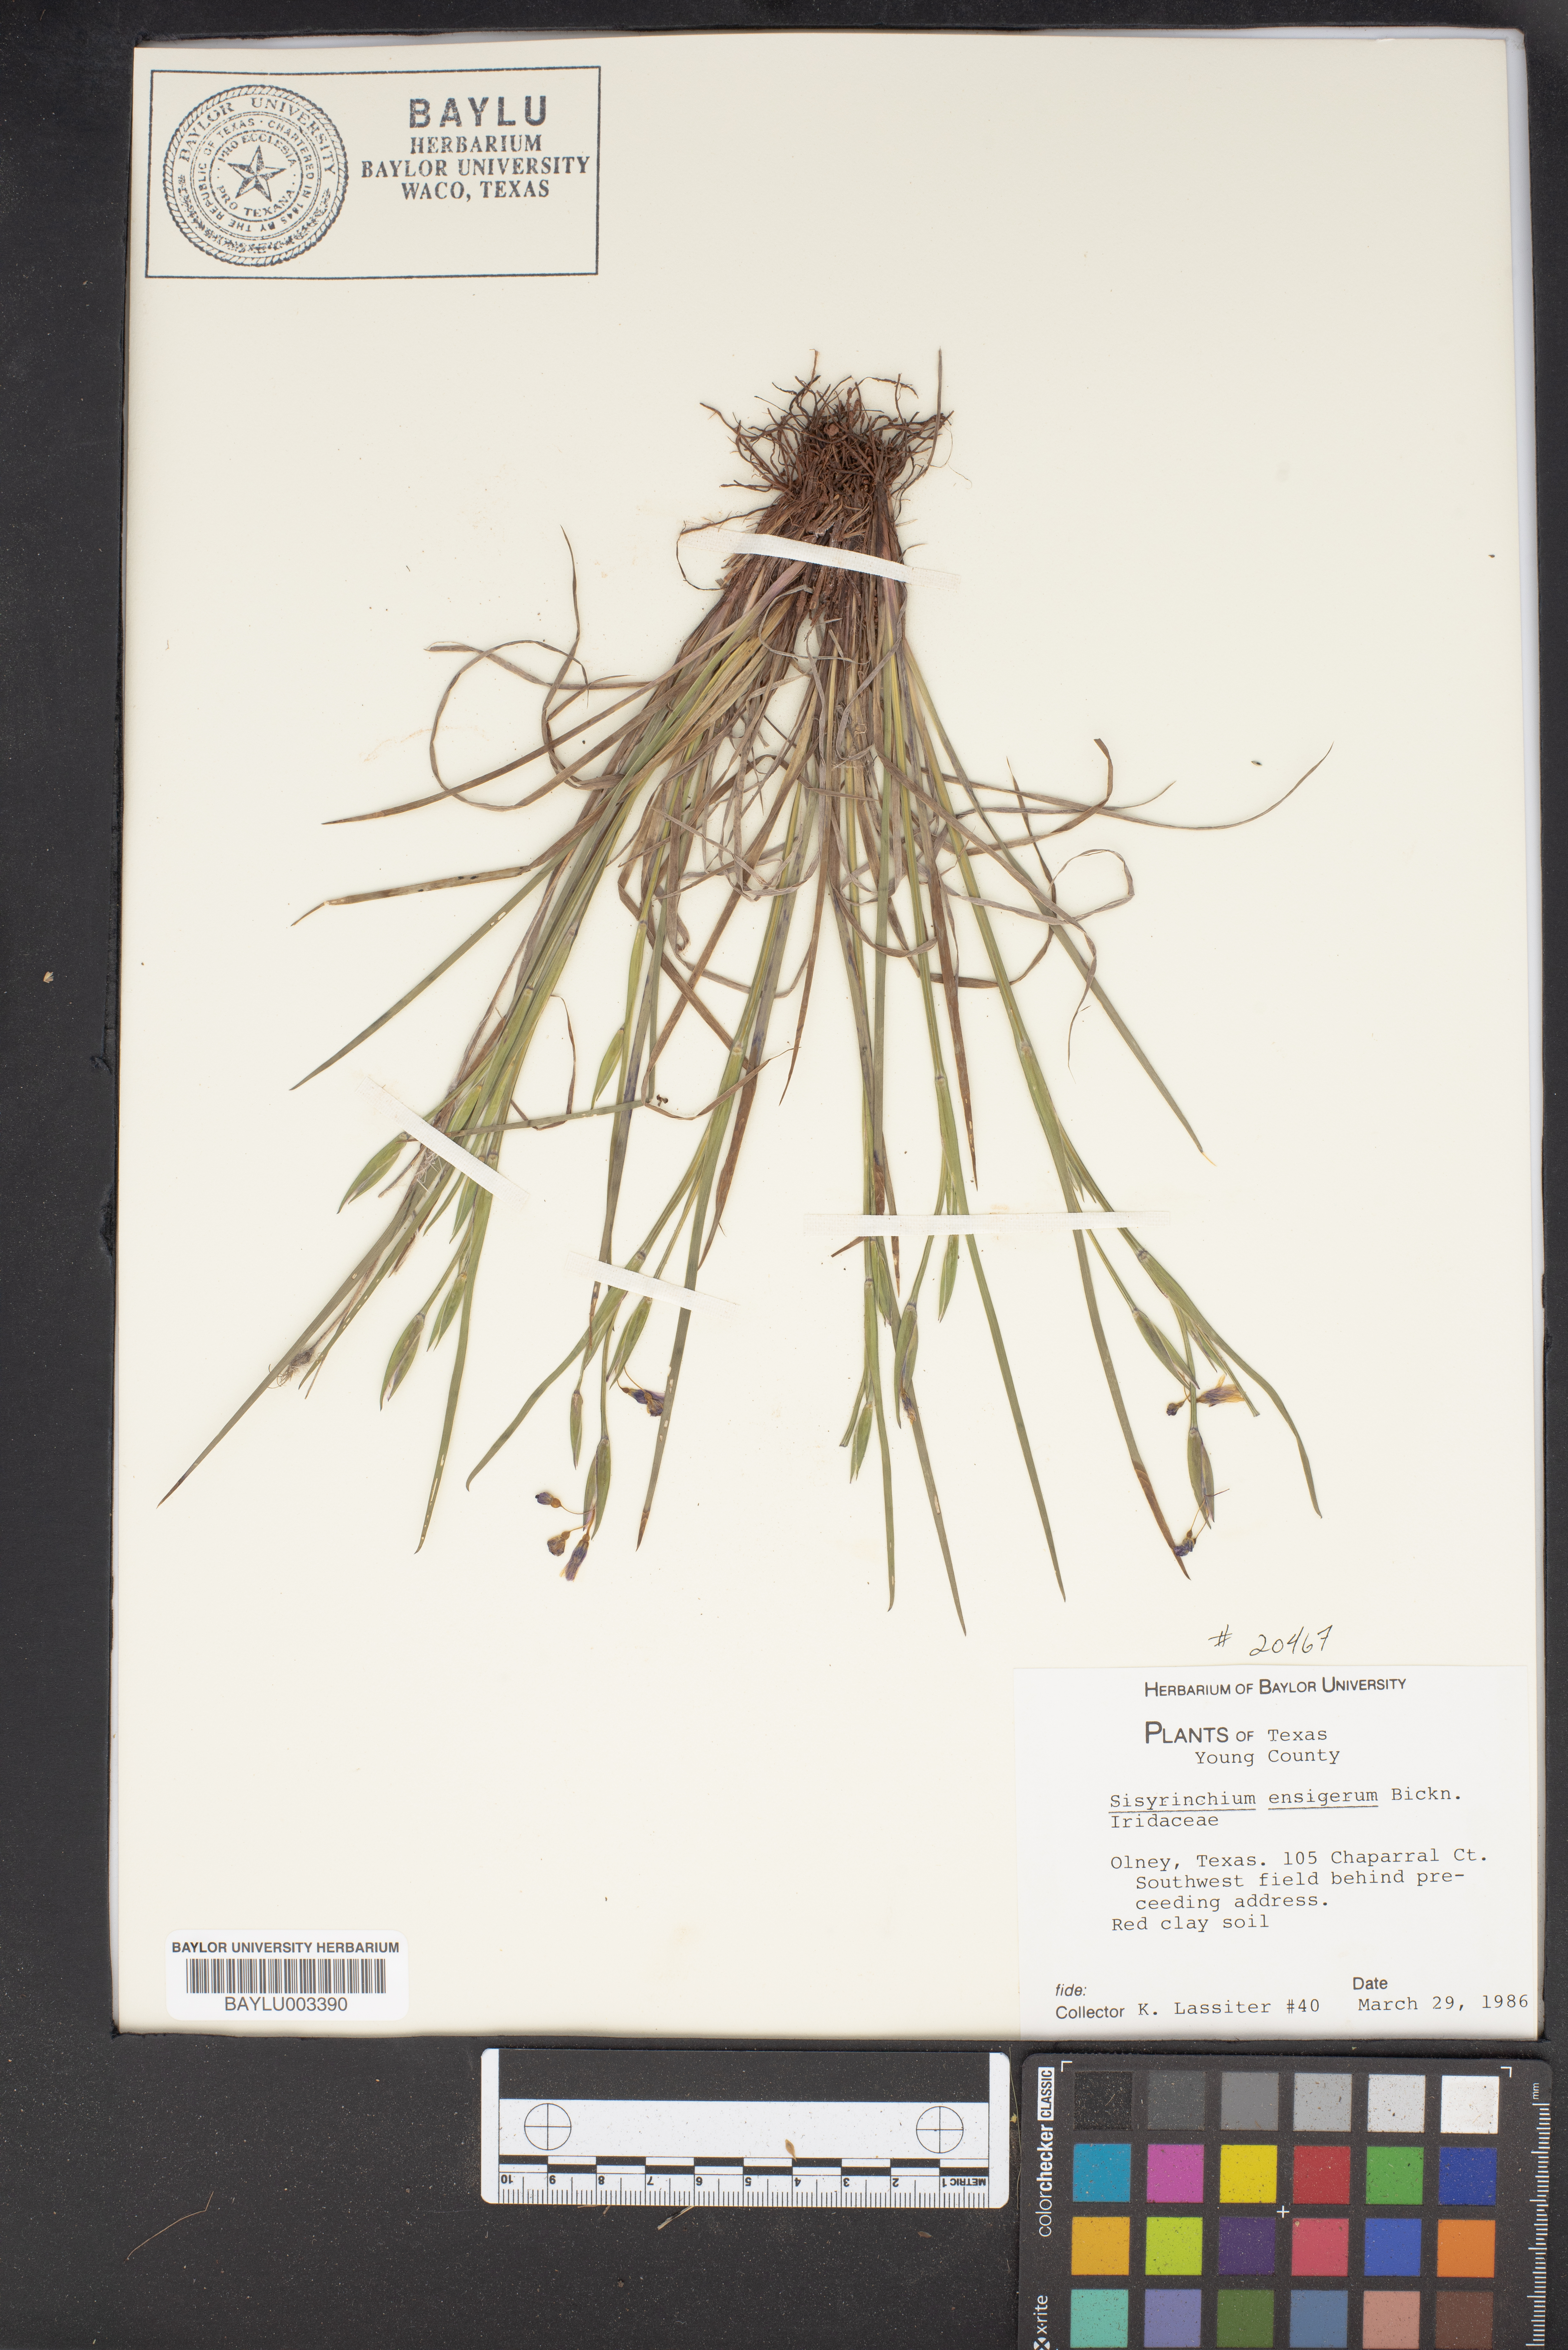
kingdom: Plantae
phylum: Tracheophyta
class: Liliopsida
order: Asparagales
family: Iridaceae
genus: Sisyrinchium
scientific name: Sisyrinchium ensigerum
